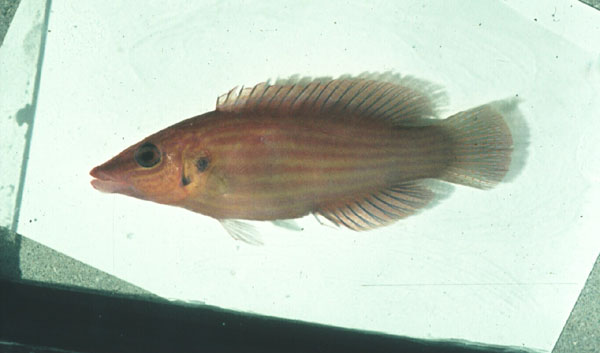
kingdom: Animalia
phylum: Chordata
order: Perciformes
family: Labridae
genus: Pseudocheilinus
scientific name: Pseudocheilinus dispilus
